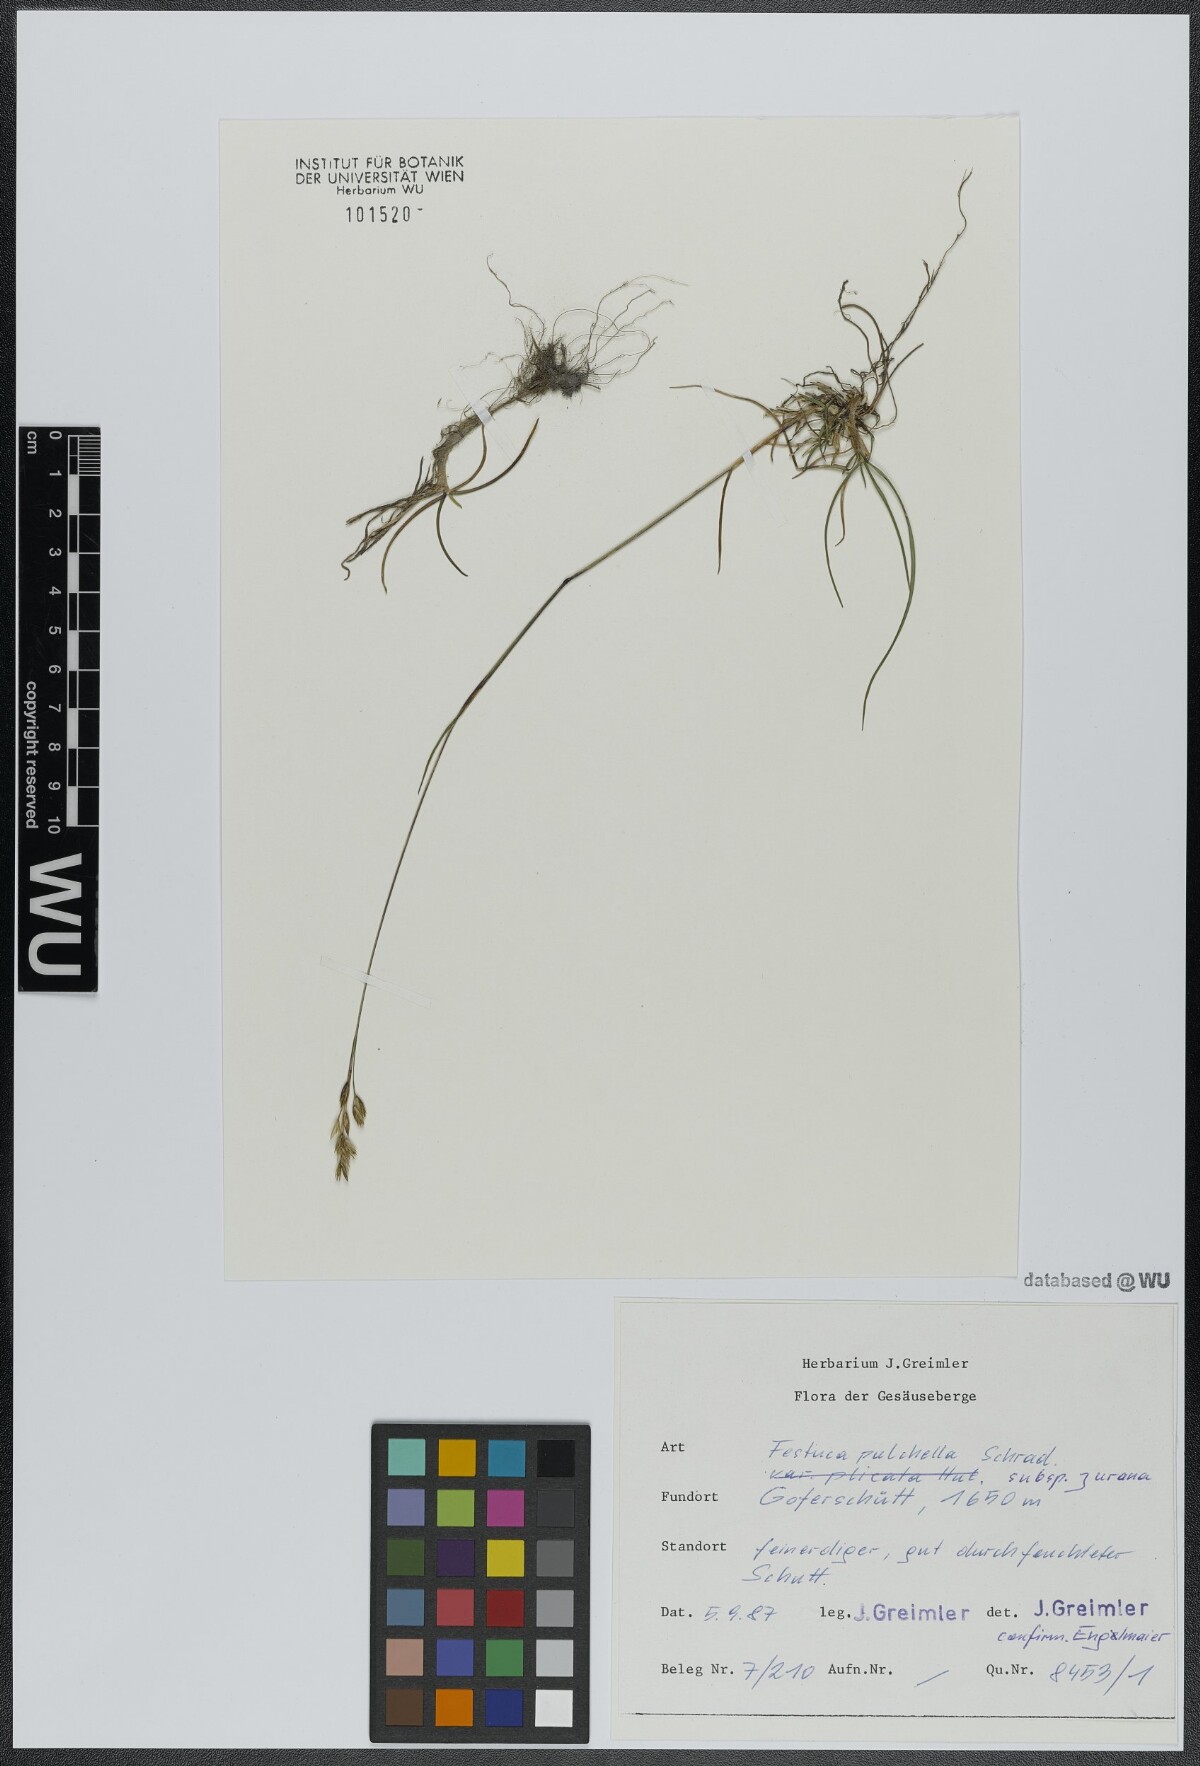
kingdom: Plantae
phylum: Tracheophyta
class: Liliopsida
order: Poales
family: Poaceae
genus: Festuca
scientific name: Festuca pulchella
